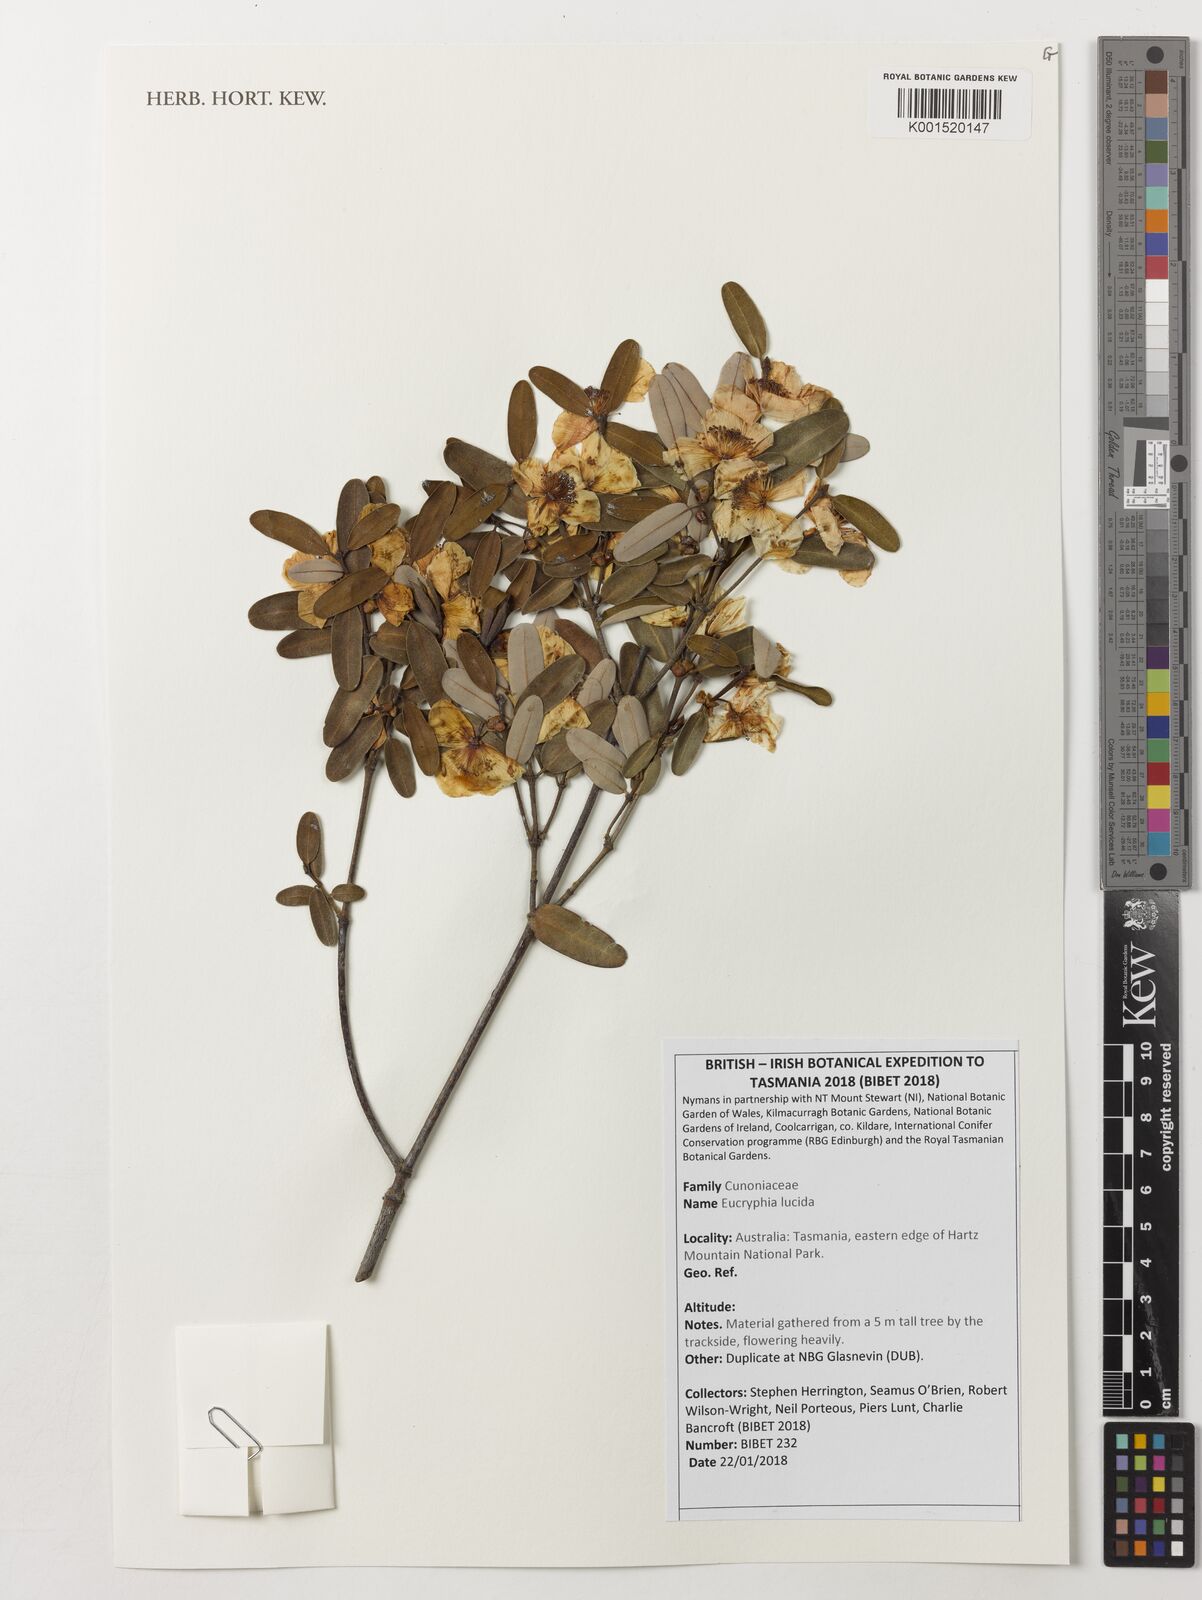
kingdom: Plantae
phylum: Tracheophyta
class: Magnoliopsida
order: Oxalidales
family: Cunoniaceae
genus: Eucryphia
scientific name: Eucryphia lucida
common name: Leatherwood
